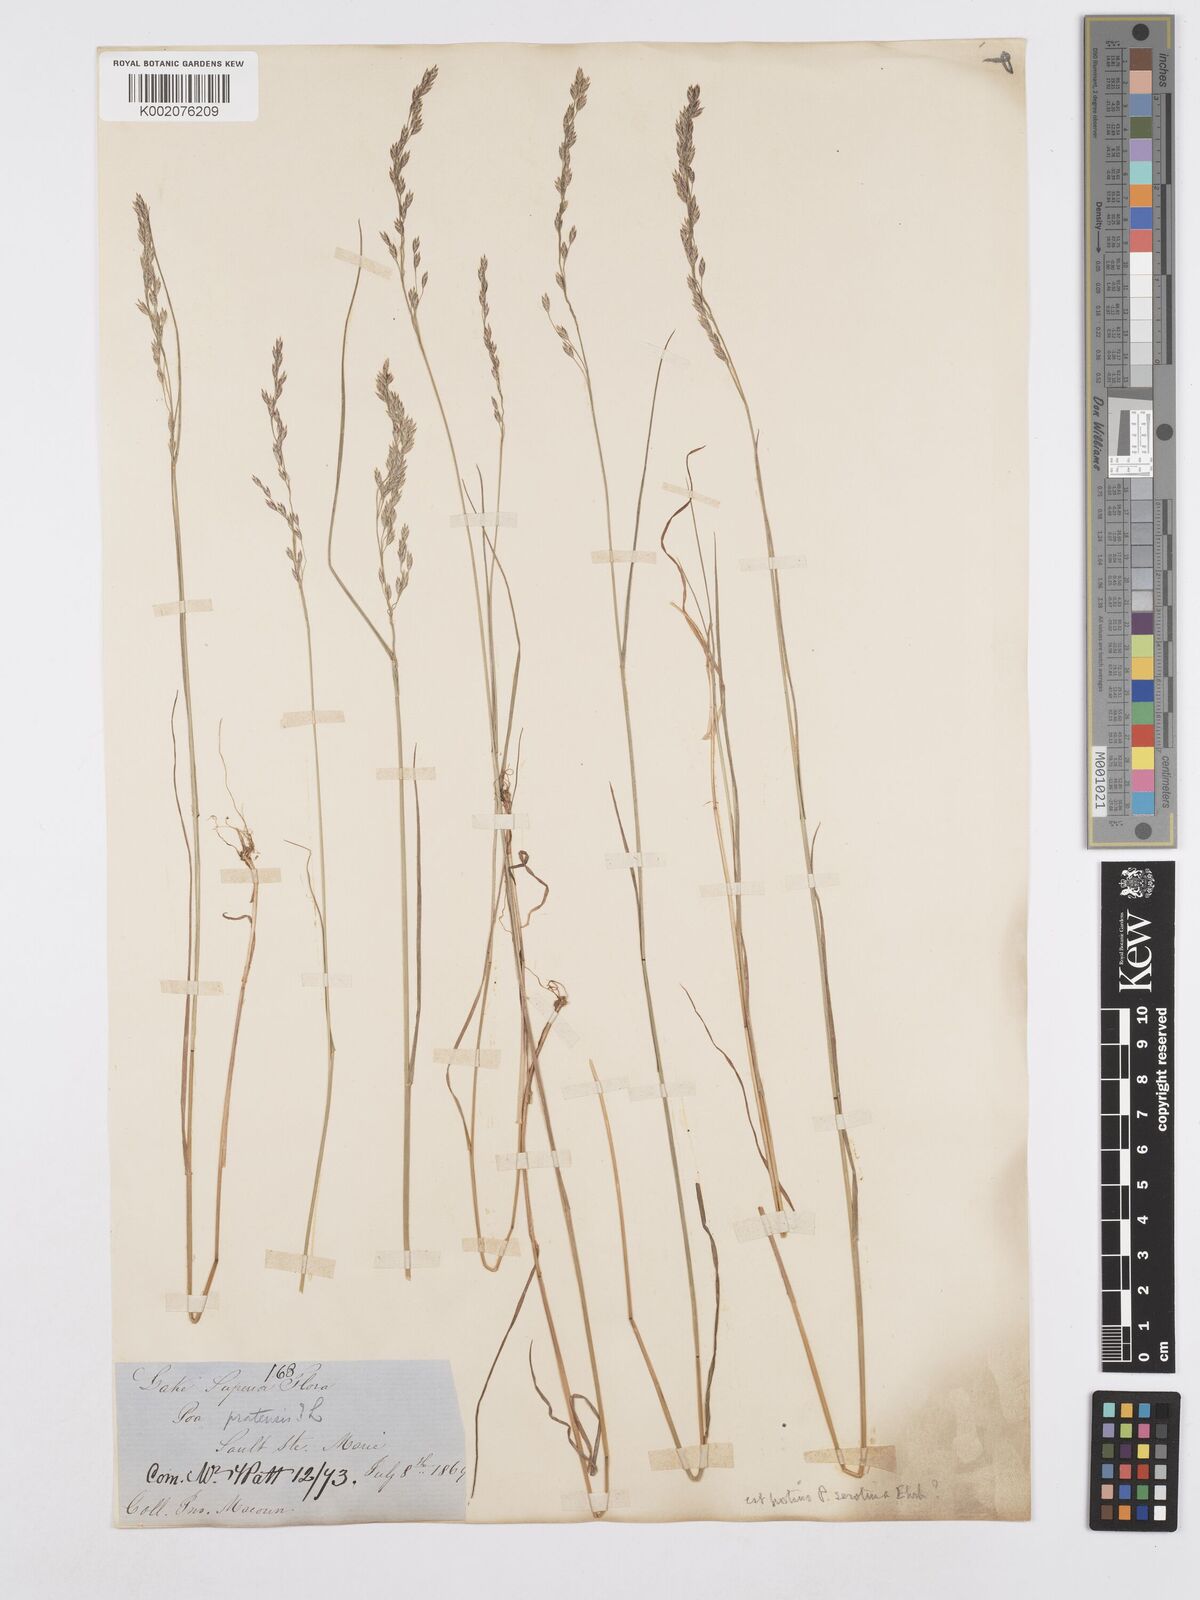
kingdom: Plantae
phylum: Tracheophyta
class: Liliopsida
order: Poales
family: Poaceae
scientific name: Poaceae
